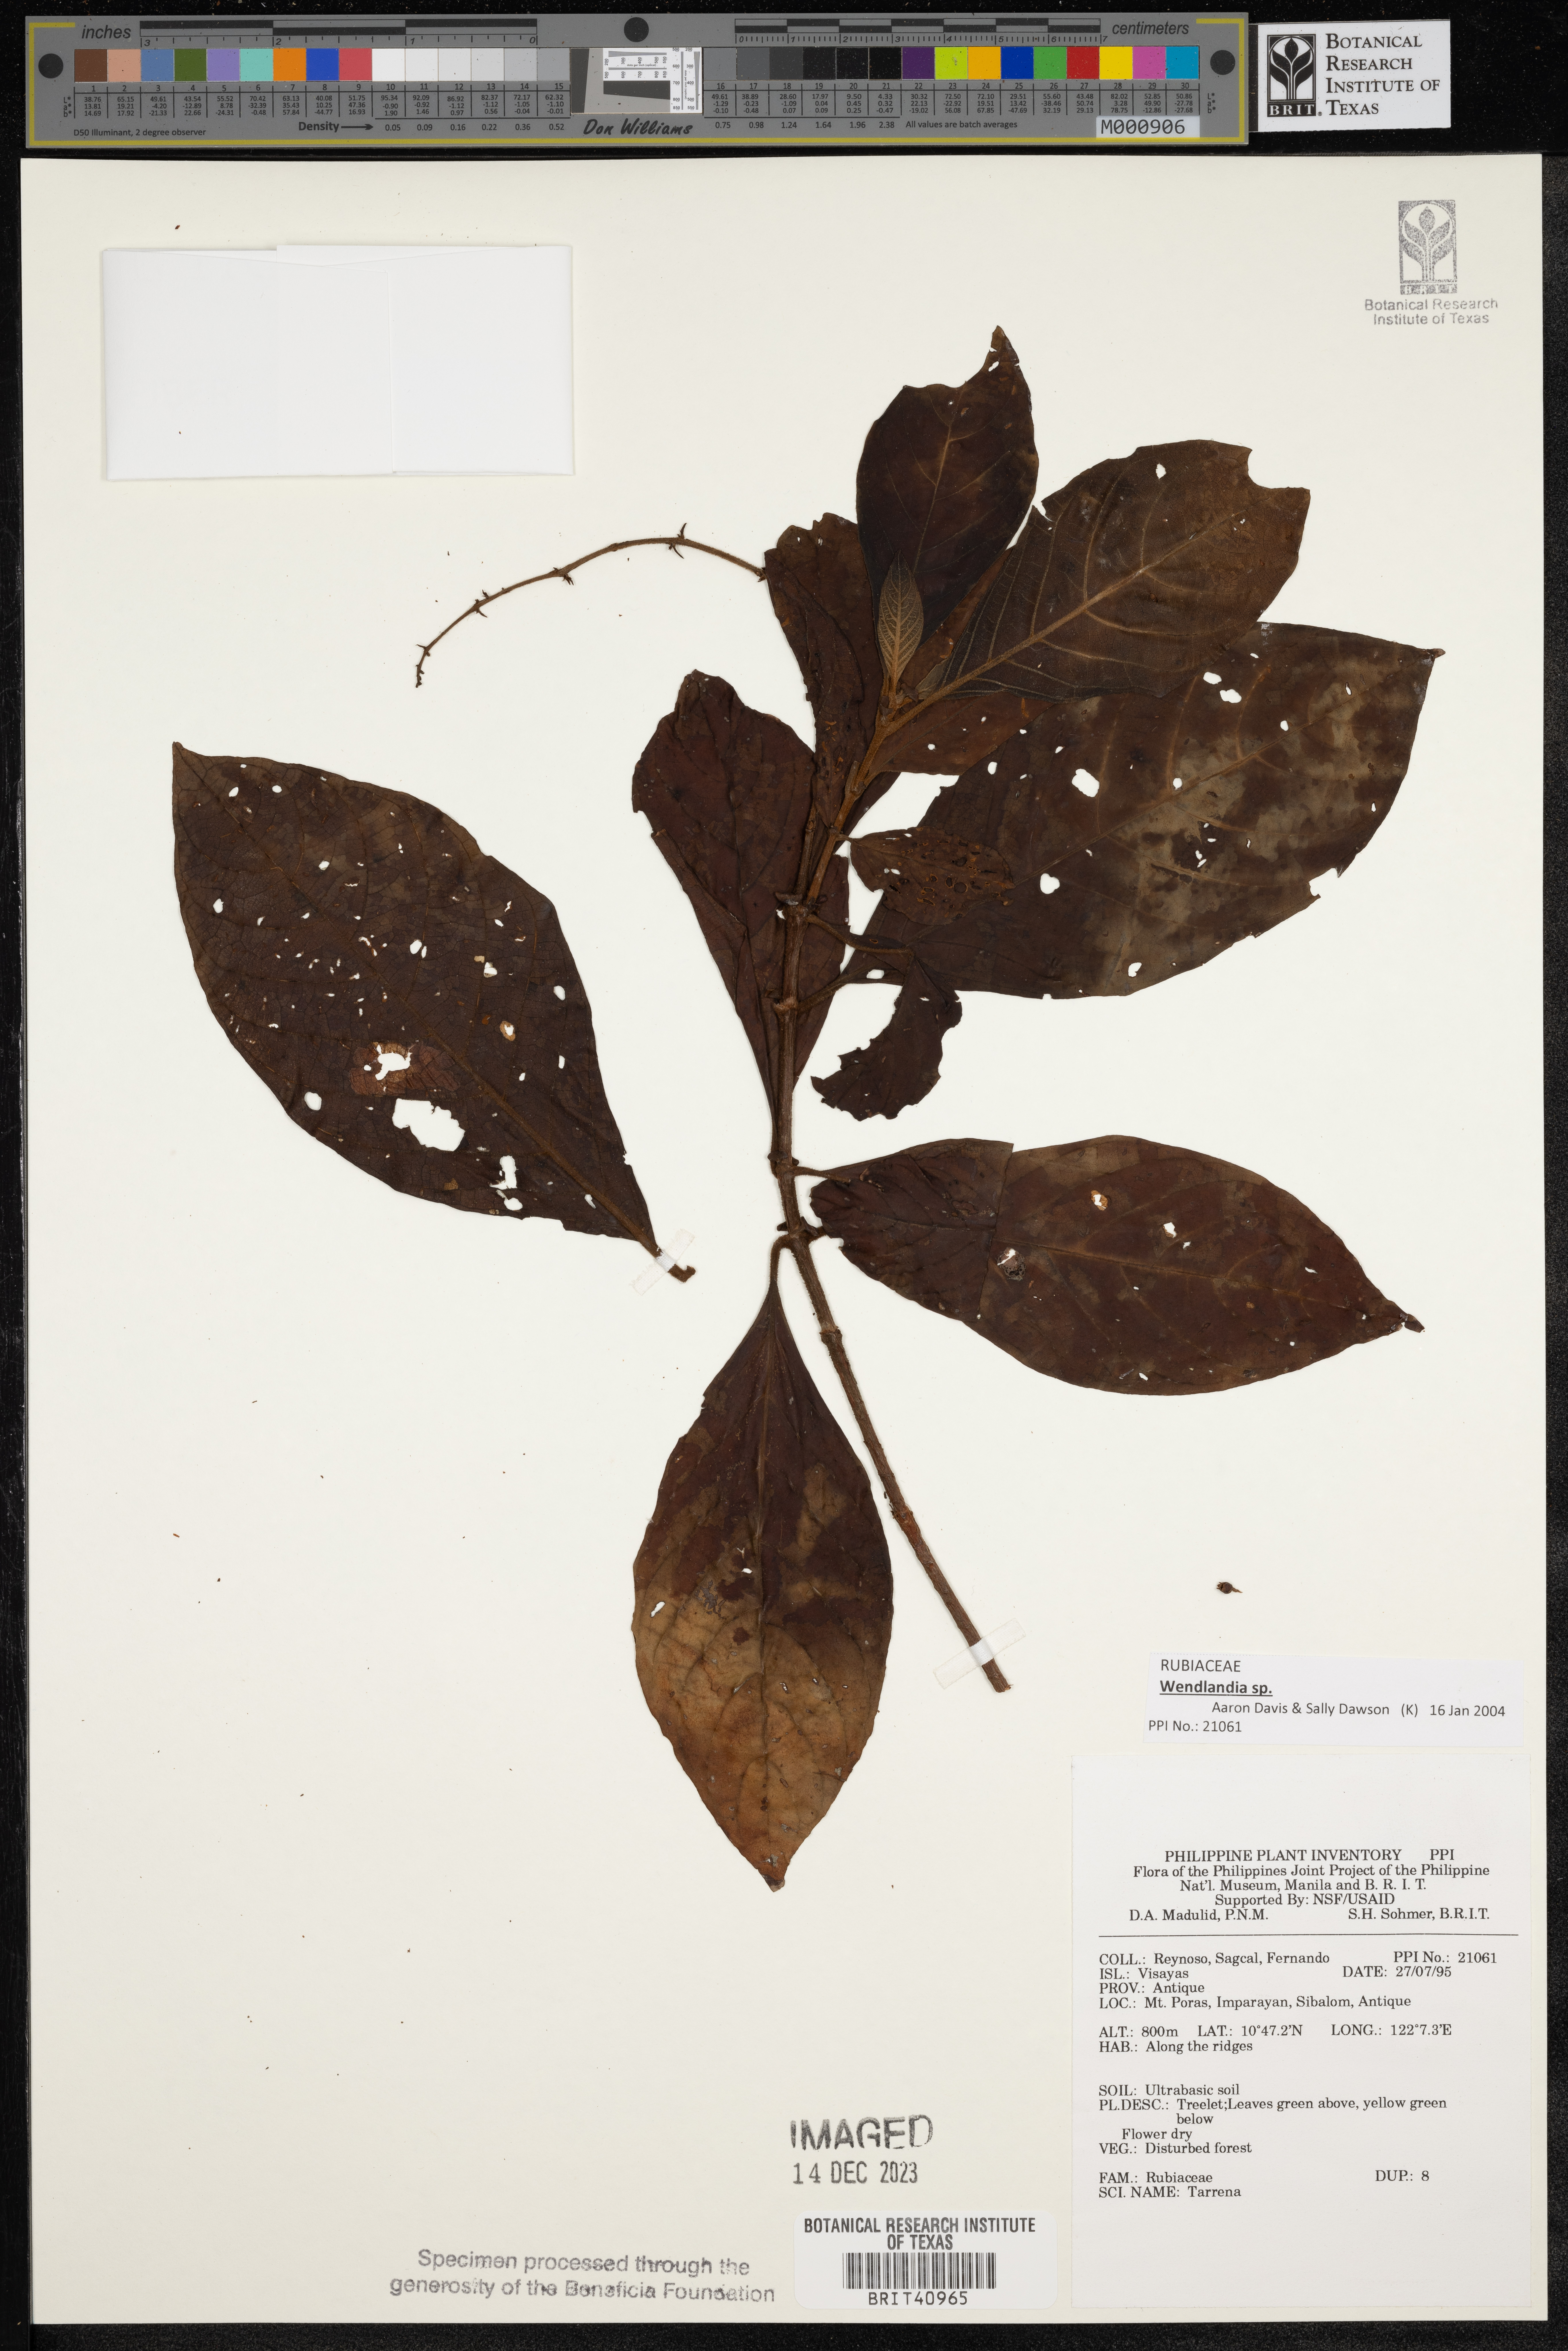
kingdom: Plantae
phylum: Tracheophyta
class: Magnoliopsida
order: Gentianales
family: Rubiaceae
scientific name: Rubiaceae
